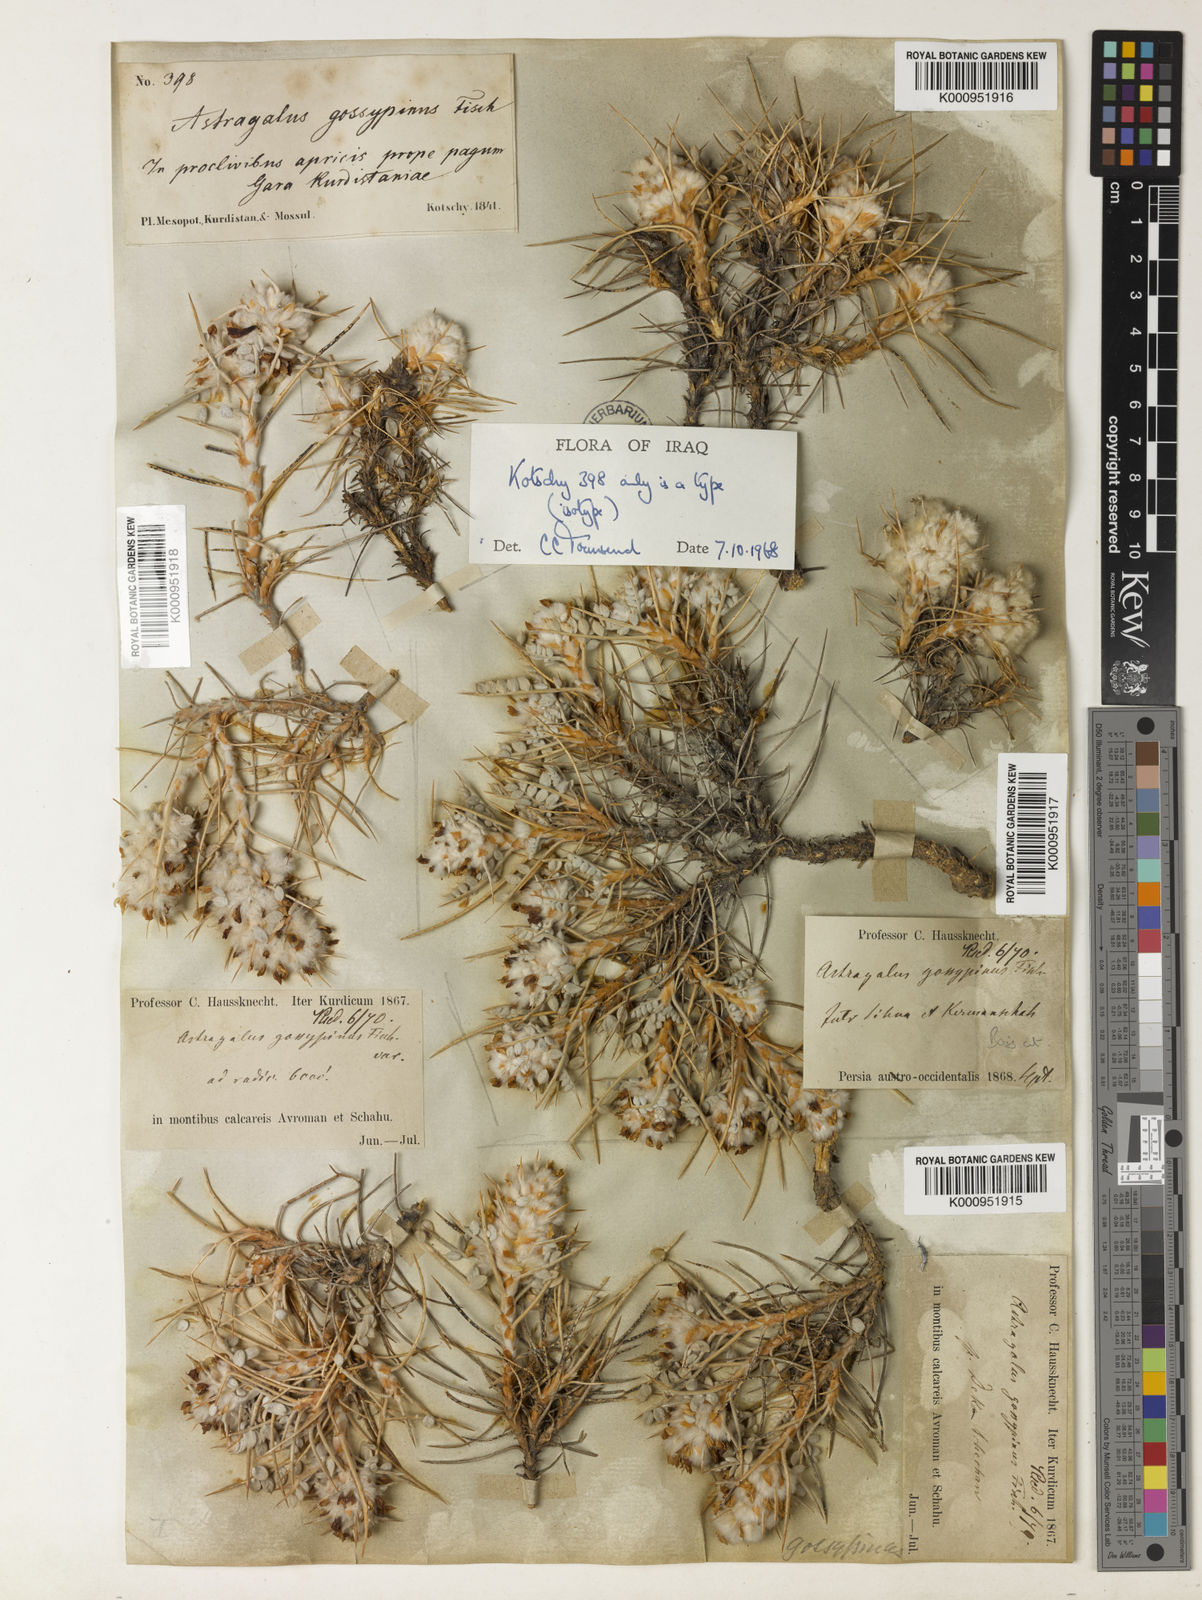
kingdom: Plantae
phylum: Tracheophyta
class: Magnoliopsida
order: Fabales
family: Fabaceae
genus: Astragalus
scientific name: Astragalus gossypinus
